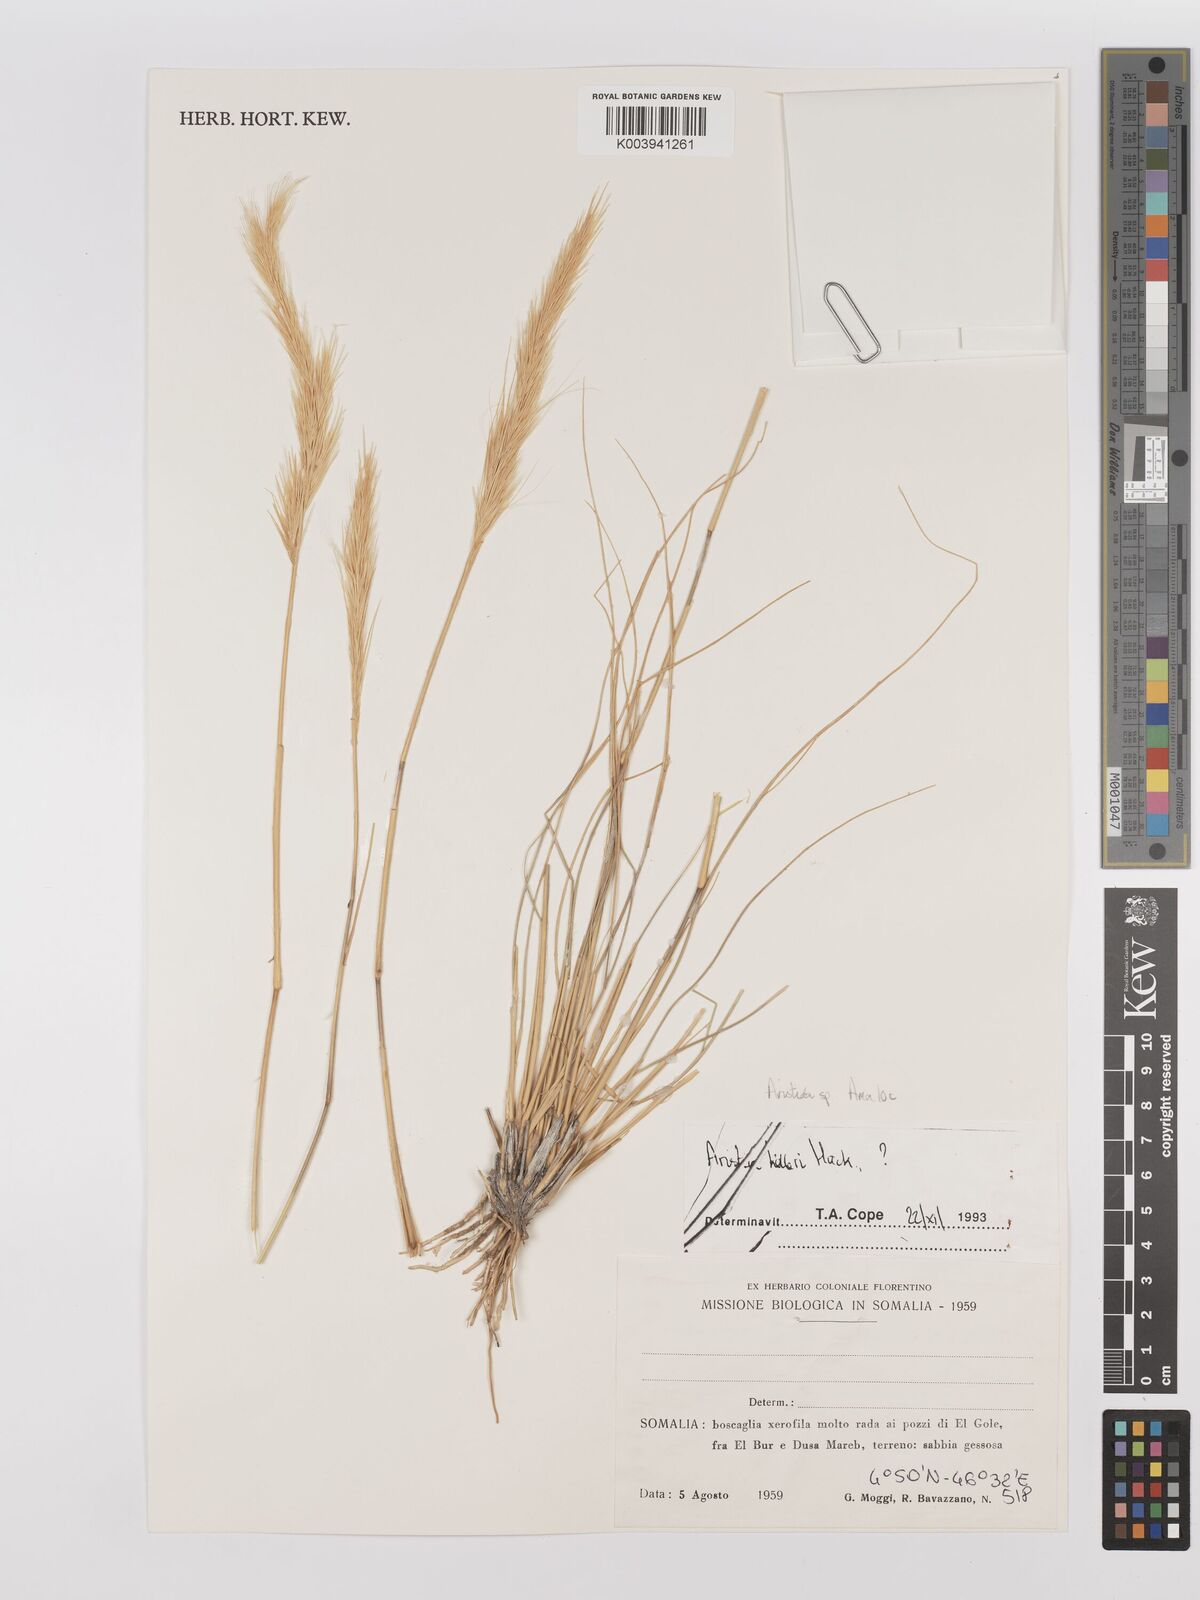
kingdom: Plantae
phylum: Tracheophyta
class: Liliopsida
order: Poales
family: Poaceae
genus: Stipagrostis
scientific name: Stipagrostis
